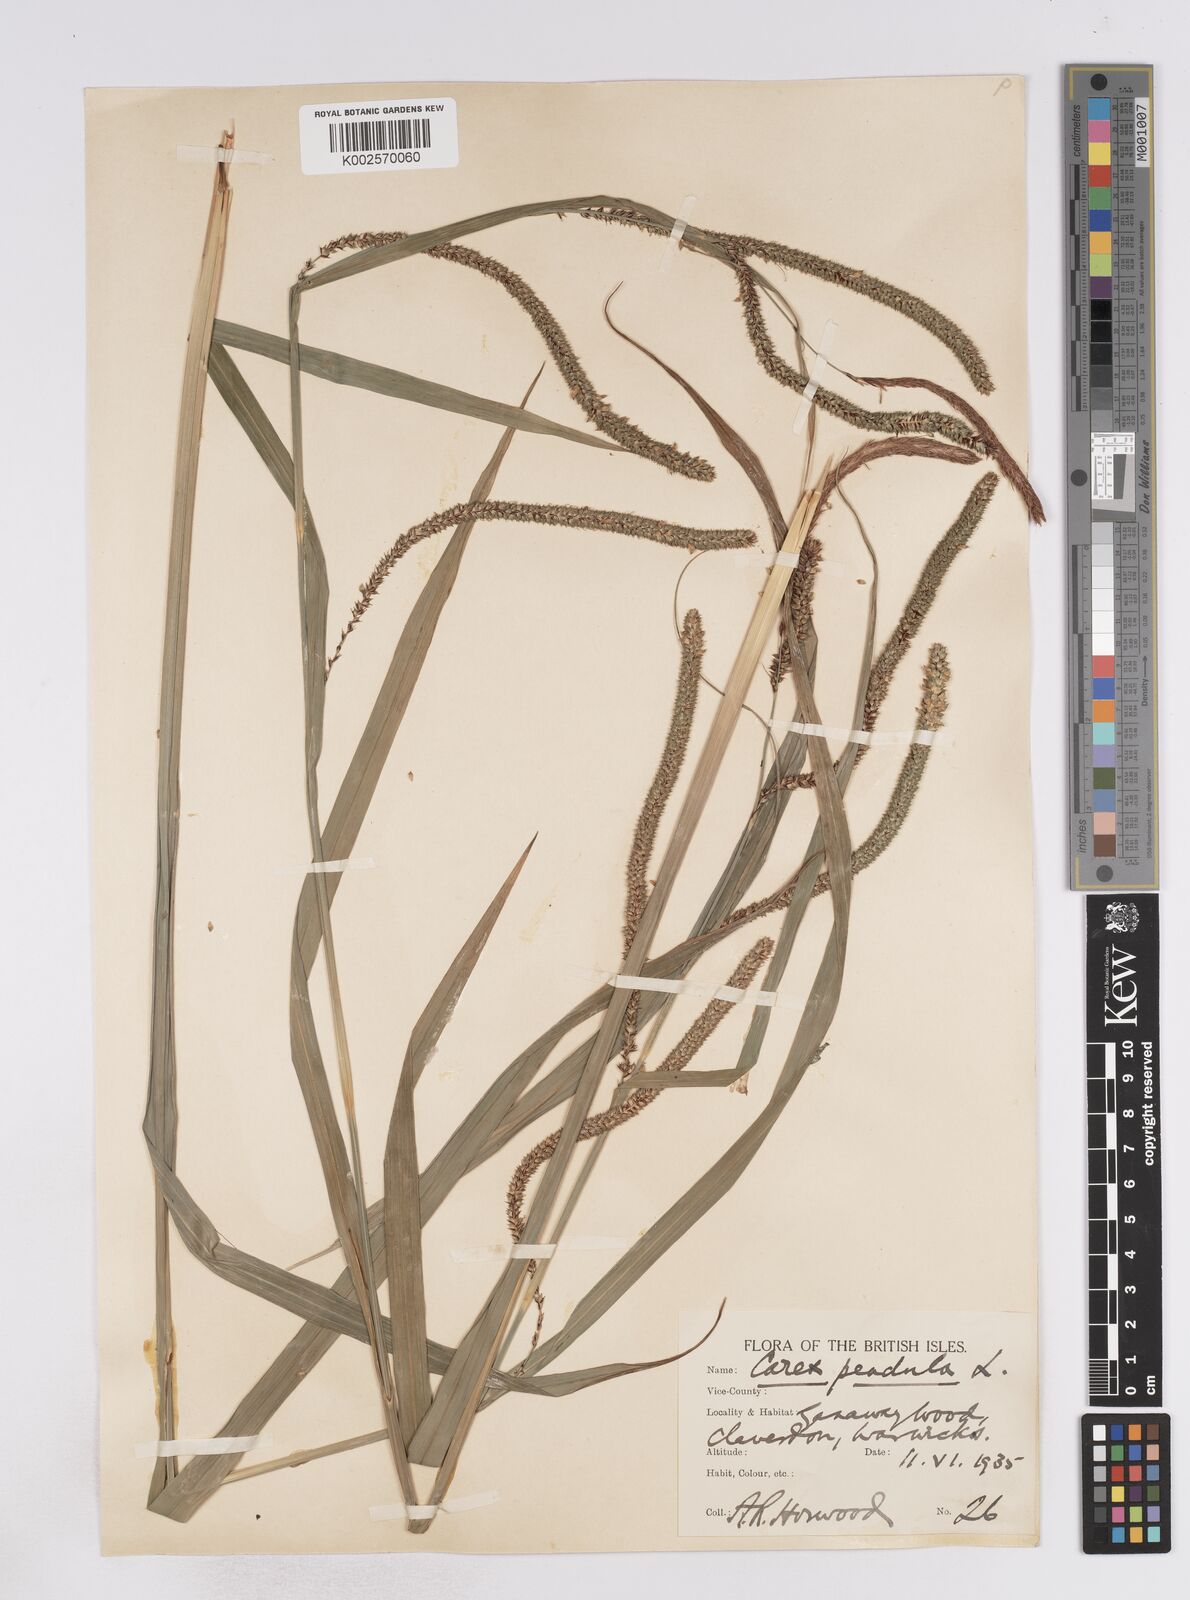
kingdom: Plantae
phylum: Tracheophyta
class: Liliopsida
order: Poales
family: Cyperaceae
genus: Carex
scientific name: Carex pendula
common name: Pendulous sedge
